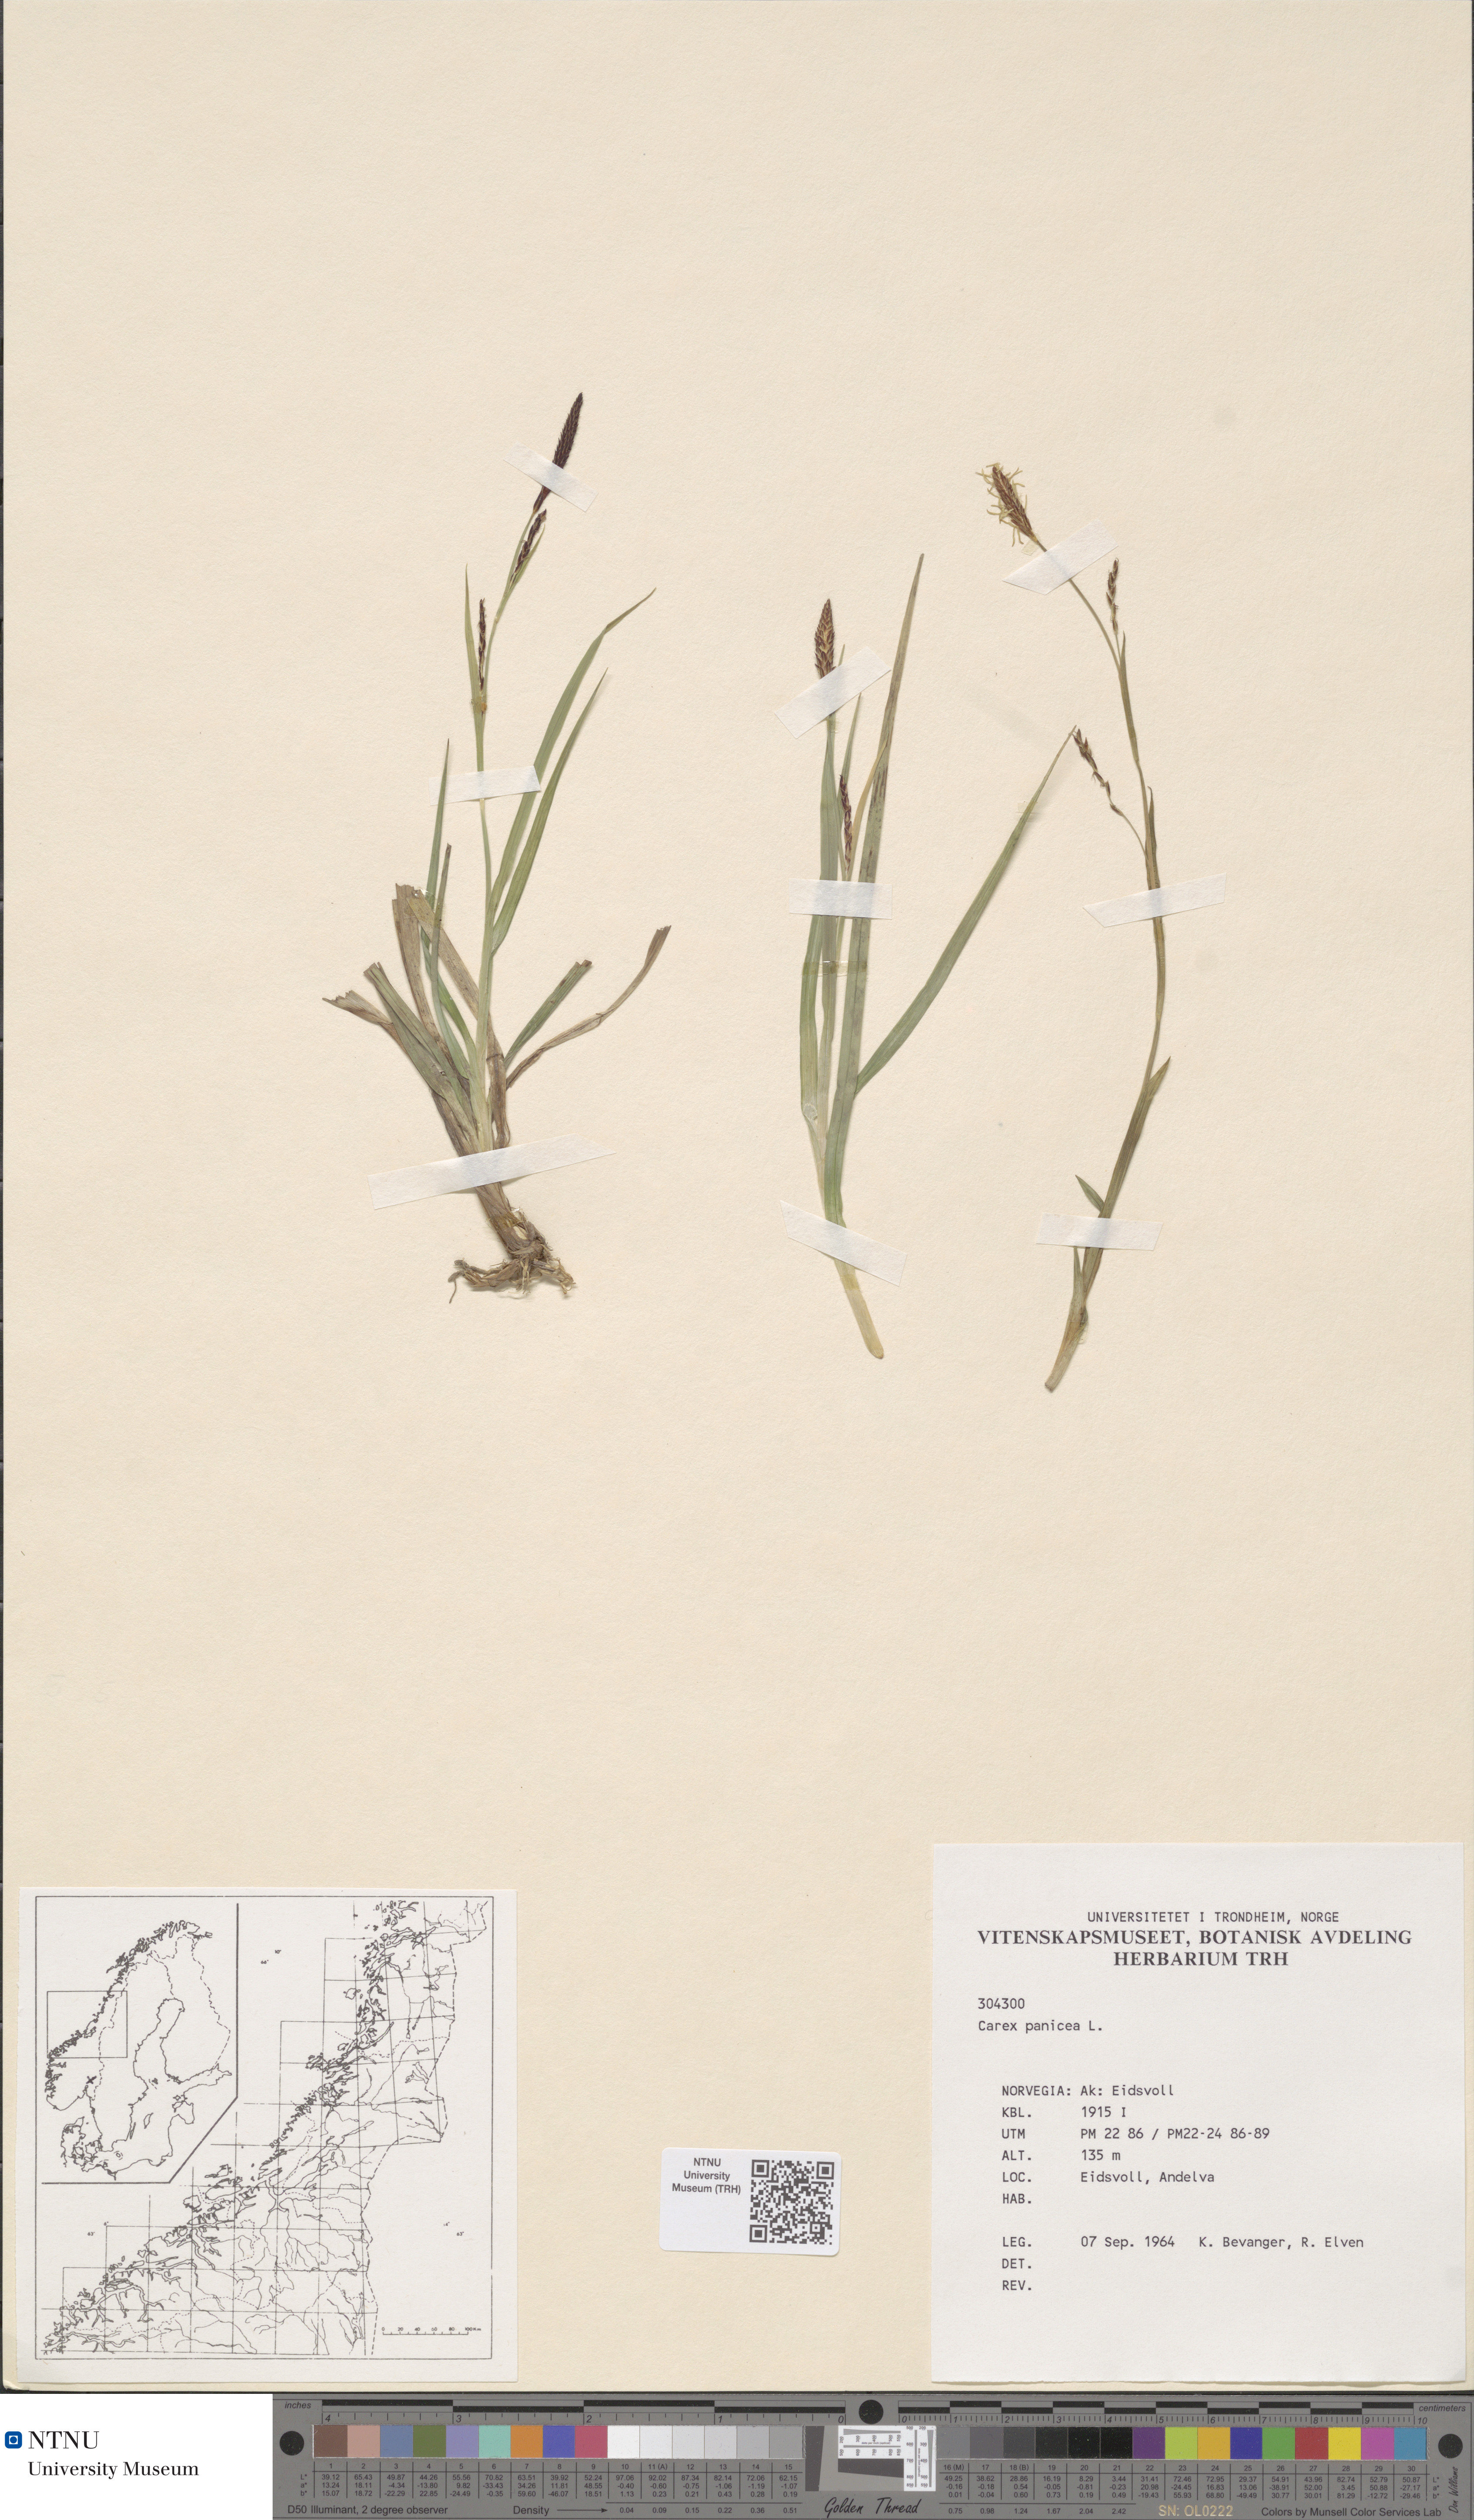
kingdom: Plantae
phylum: Tracheophyta
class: Liliopsida
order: Poales
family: Cyperaceae
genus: Carex
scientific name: Carex panicea
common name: Carnation sedge
